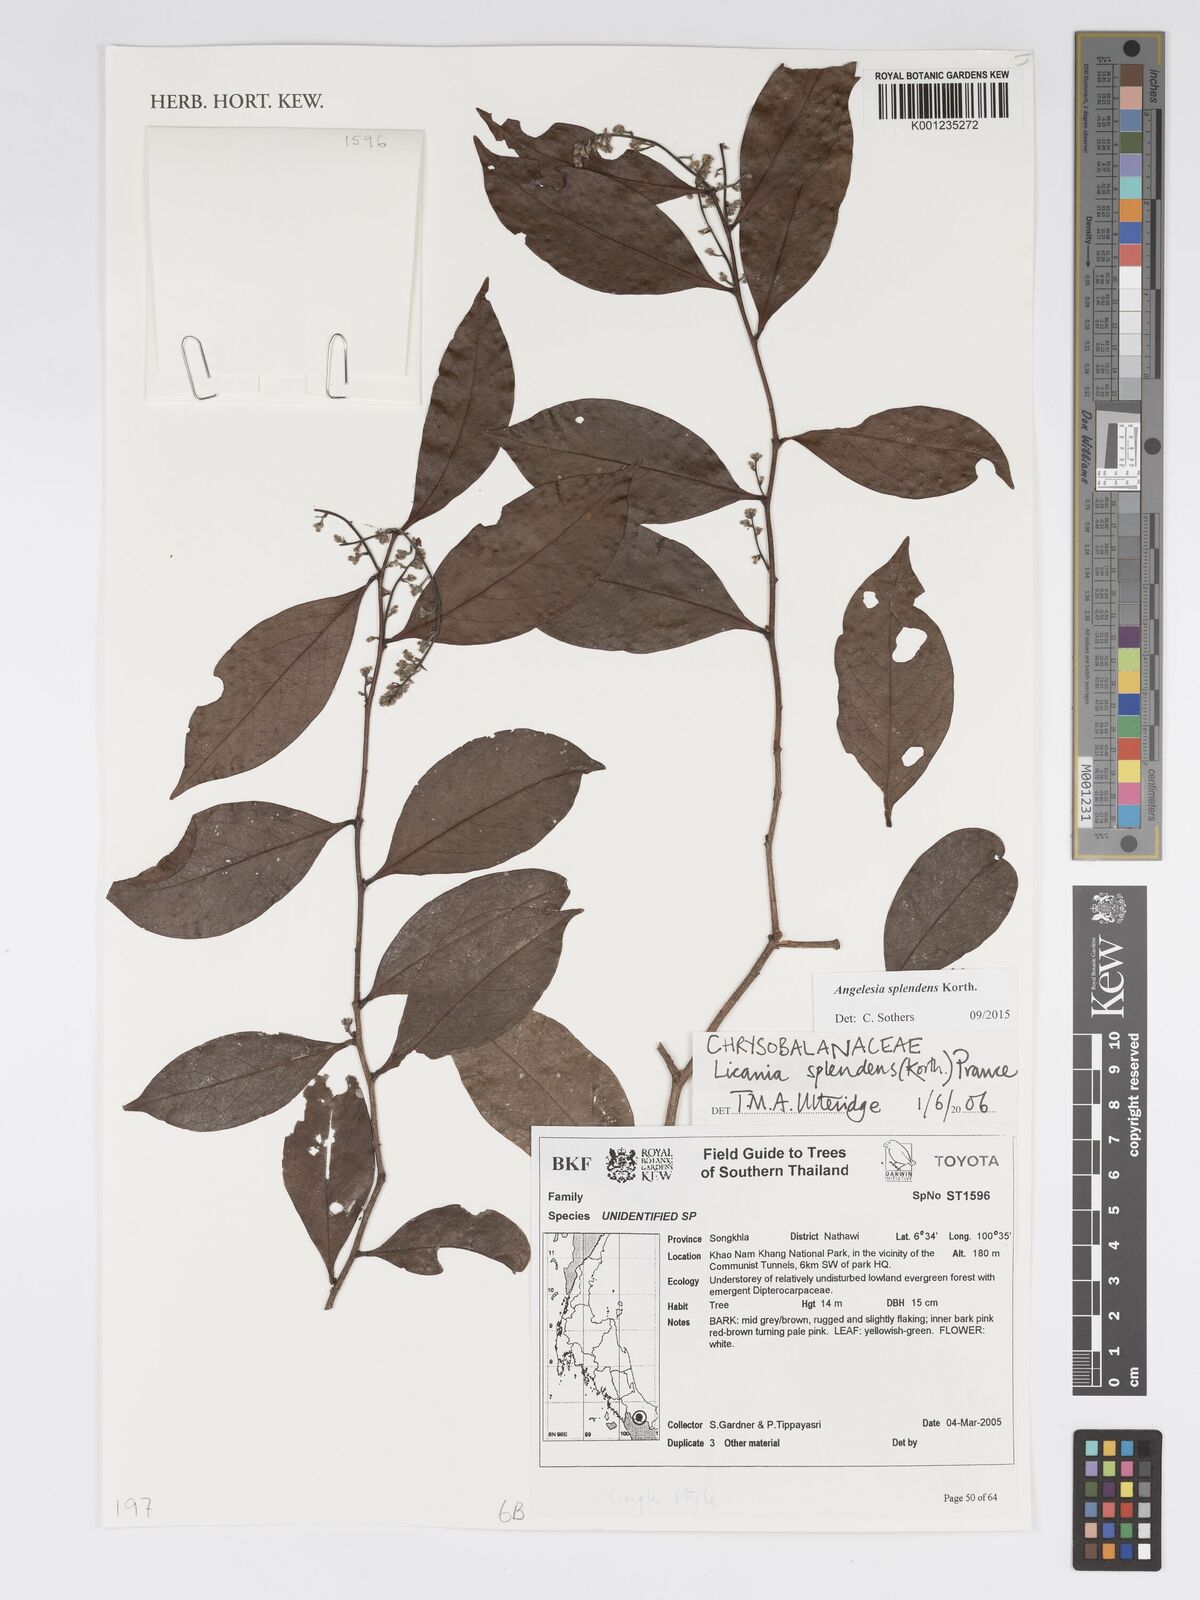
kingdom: Plantae
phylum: Tracheophyta
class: Magnoliopsida
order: Malpighiales
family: Chrysobalanaceae
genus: Angelesia
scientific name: Angelesia splendens
